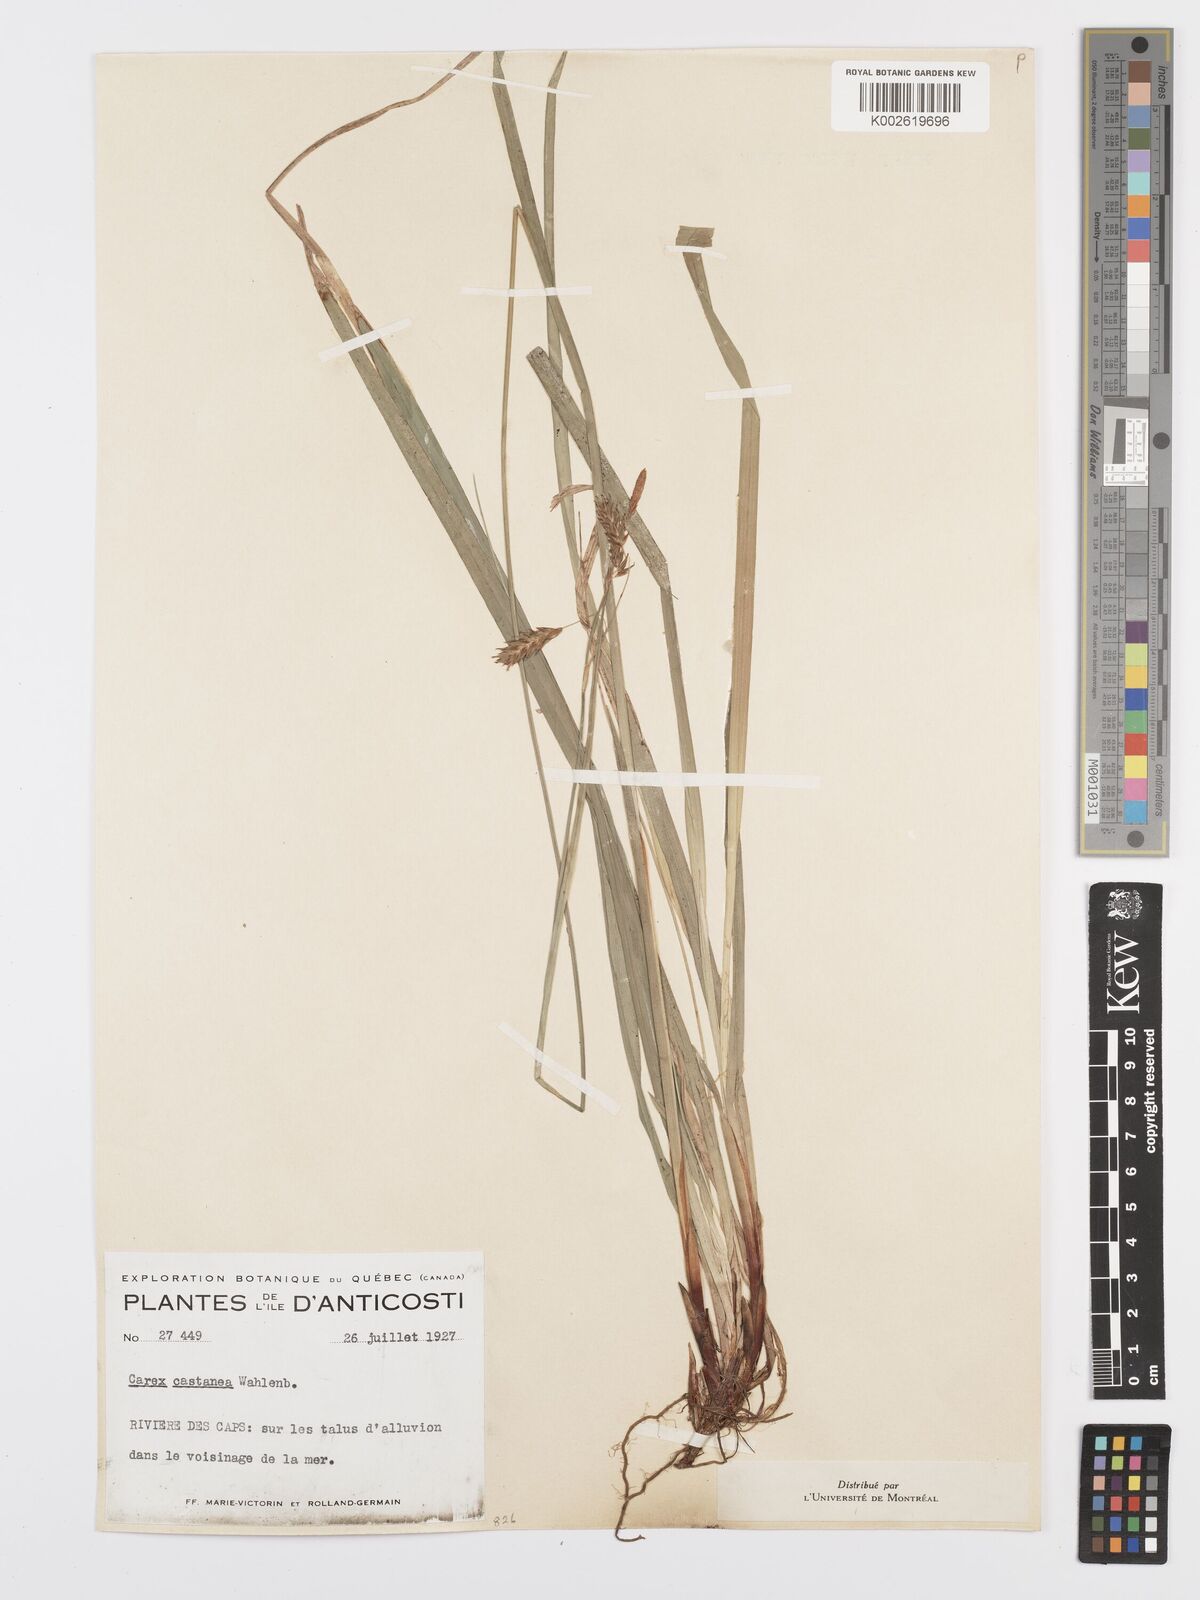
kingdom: Plantae
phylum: Tracheophyta
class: Liliopsida
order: Poales
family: Cyperaceae
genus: Carex
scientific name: Carex castanea
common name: Chestnut sedge
